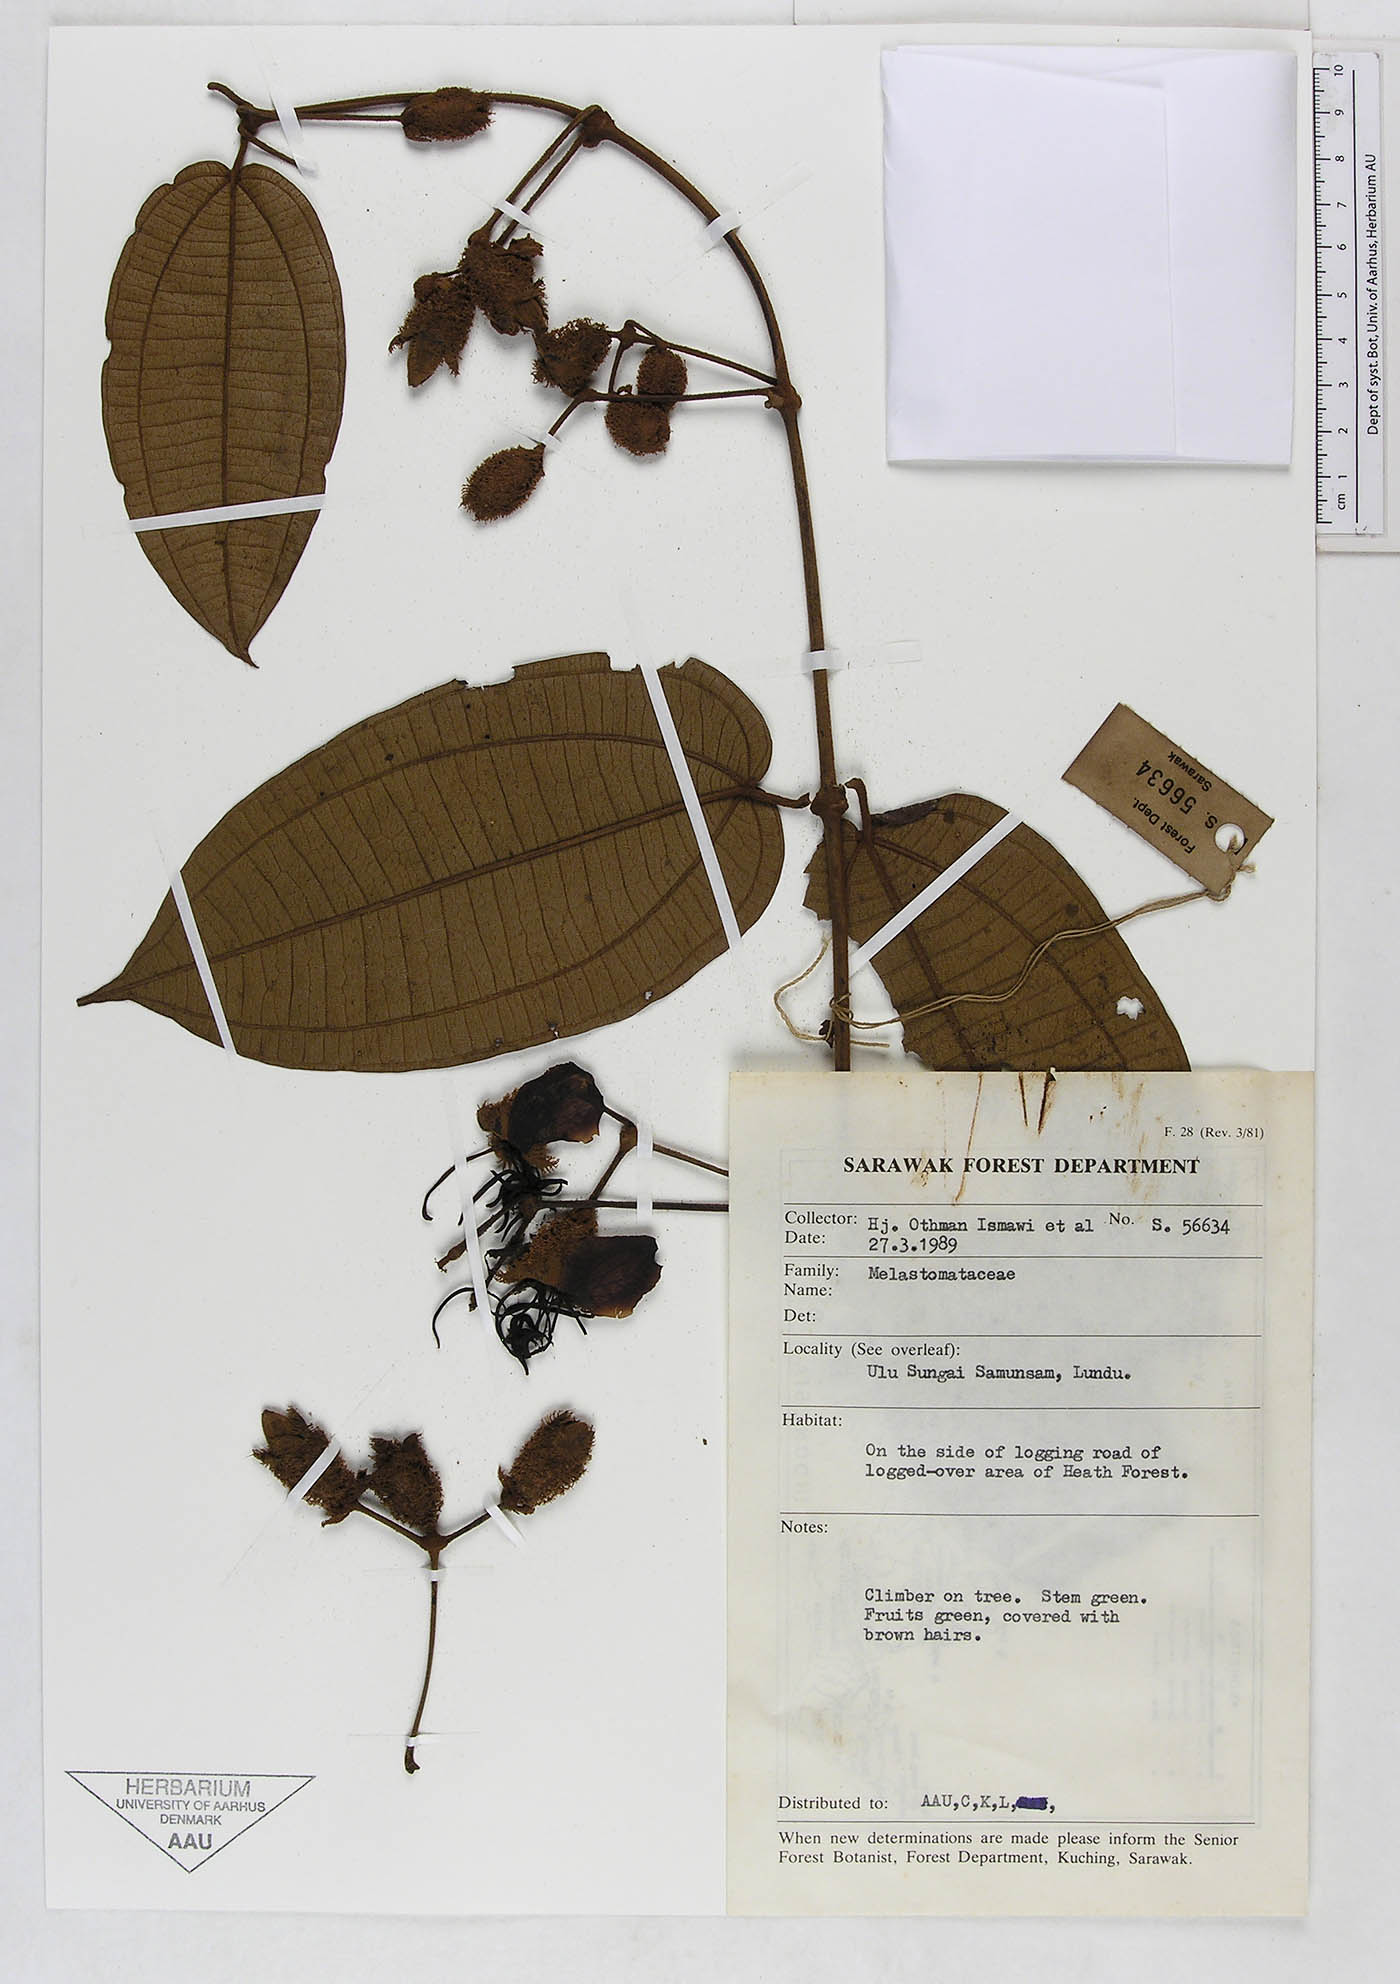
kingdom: Plantae
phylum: Tracheophyta
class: Magnoliopsida
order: Myrtales
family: Melastomataceae
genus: Macrolenes
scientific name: Macrolenes
